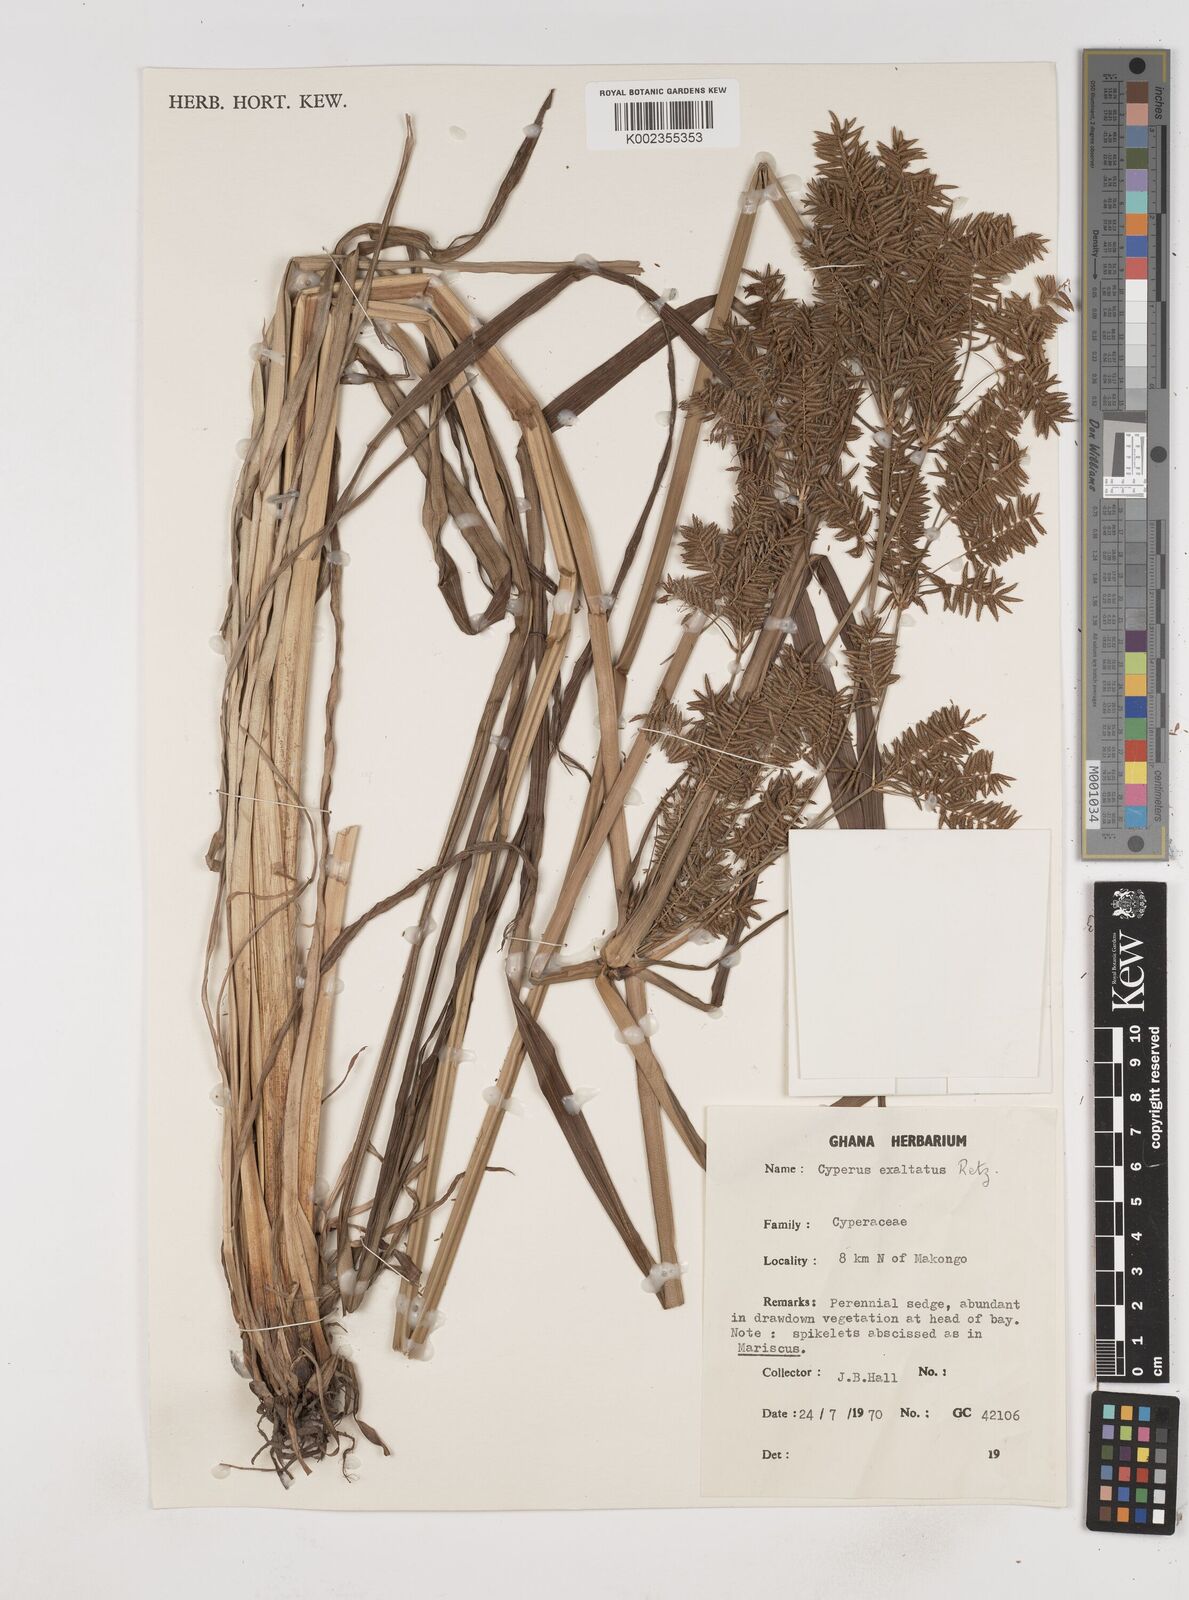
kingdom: Plantae
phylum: Tracheophyta
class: Liliopsida
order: Poales
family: Cyperaceae
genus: Cyperus
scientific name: Cyperus exaltatus
